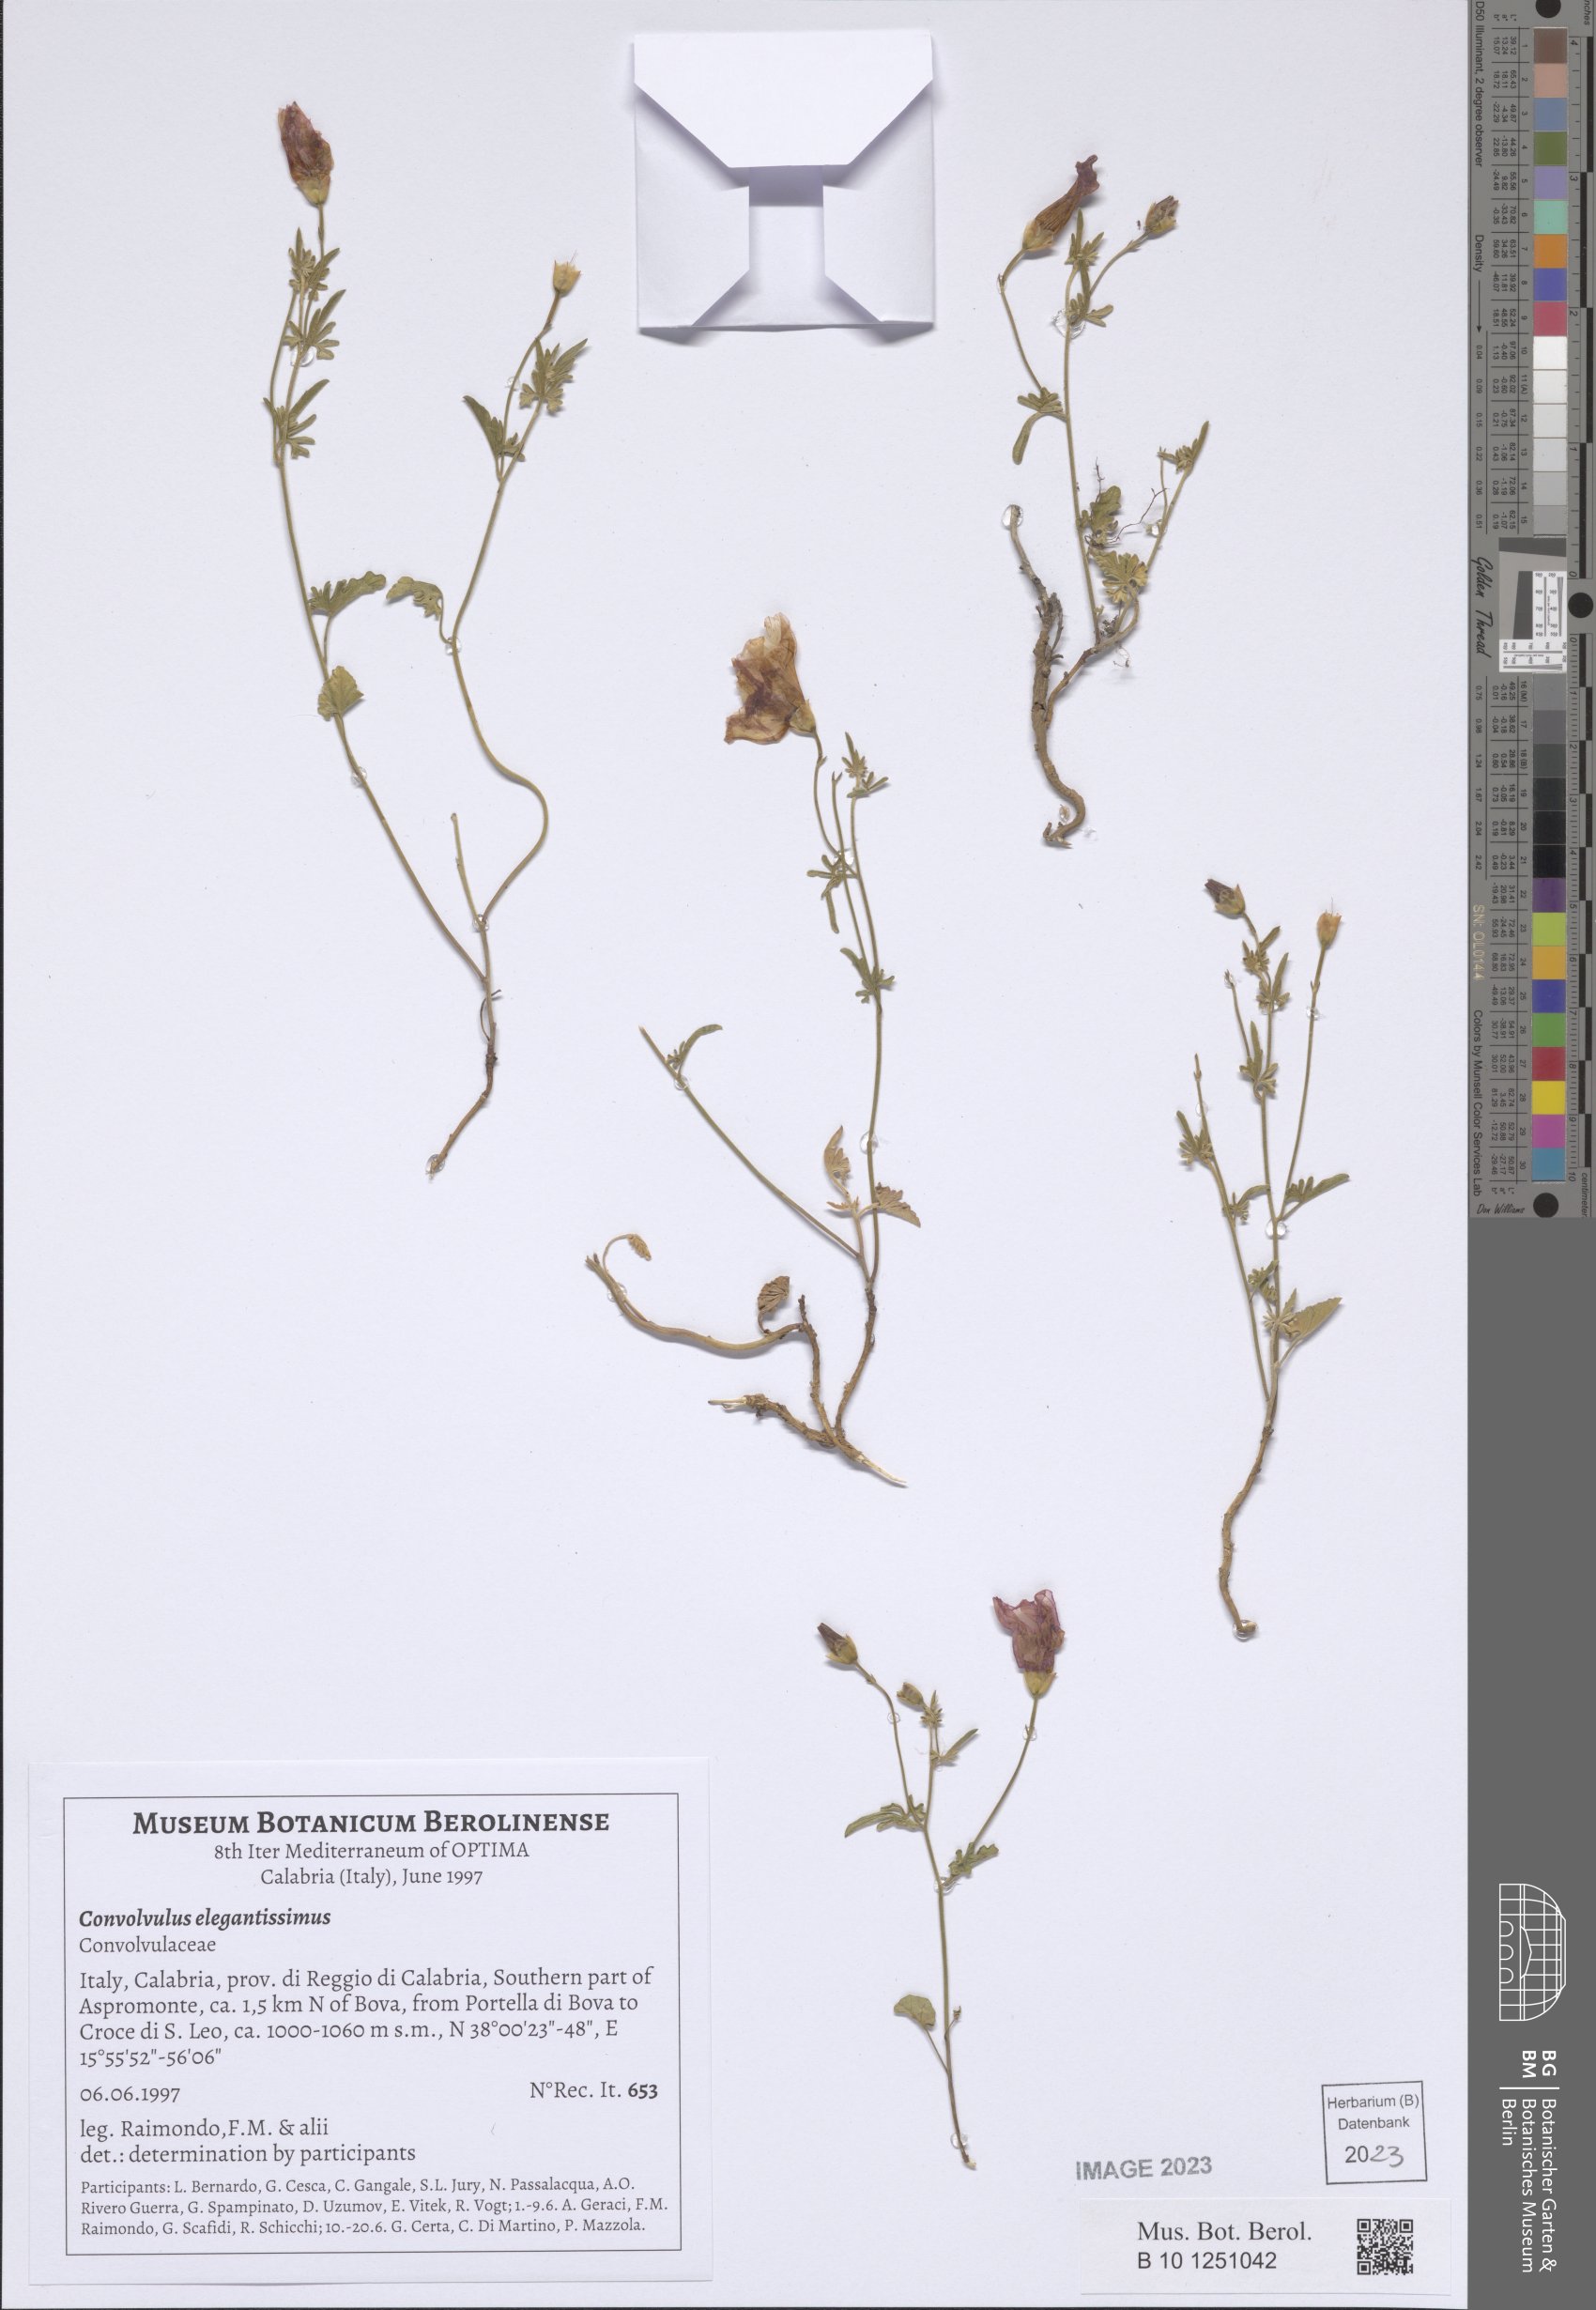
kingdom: Plantae
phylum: Tracheophyta
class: Magnoliopsida
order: Solanales
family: Convolvulaceae
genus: Convolvulus
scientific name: Convolvulus elegantissimus
